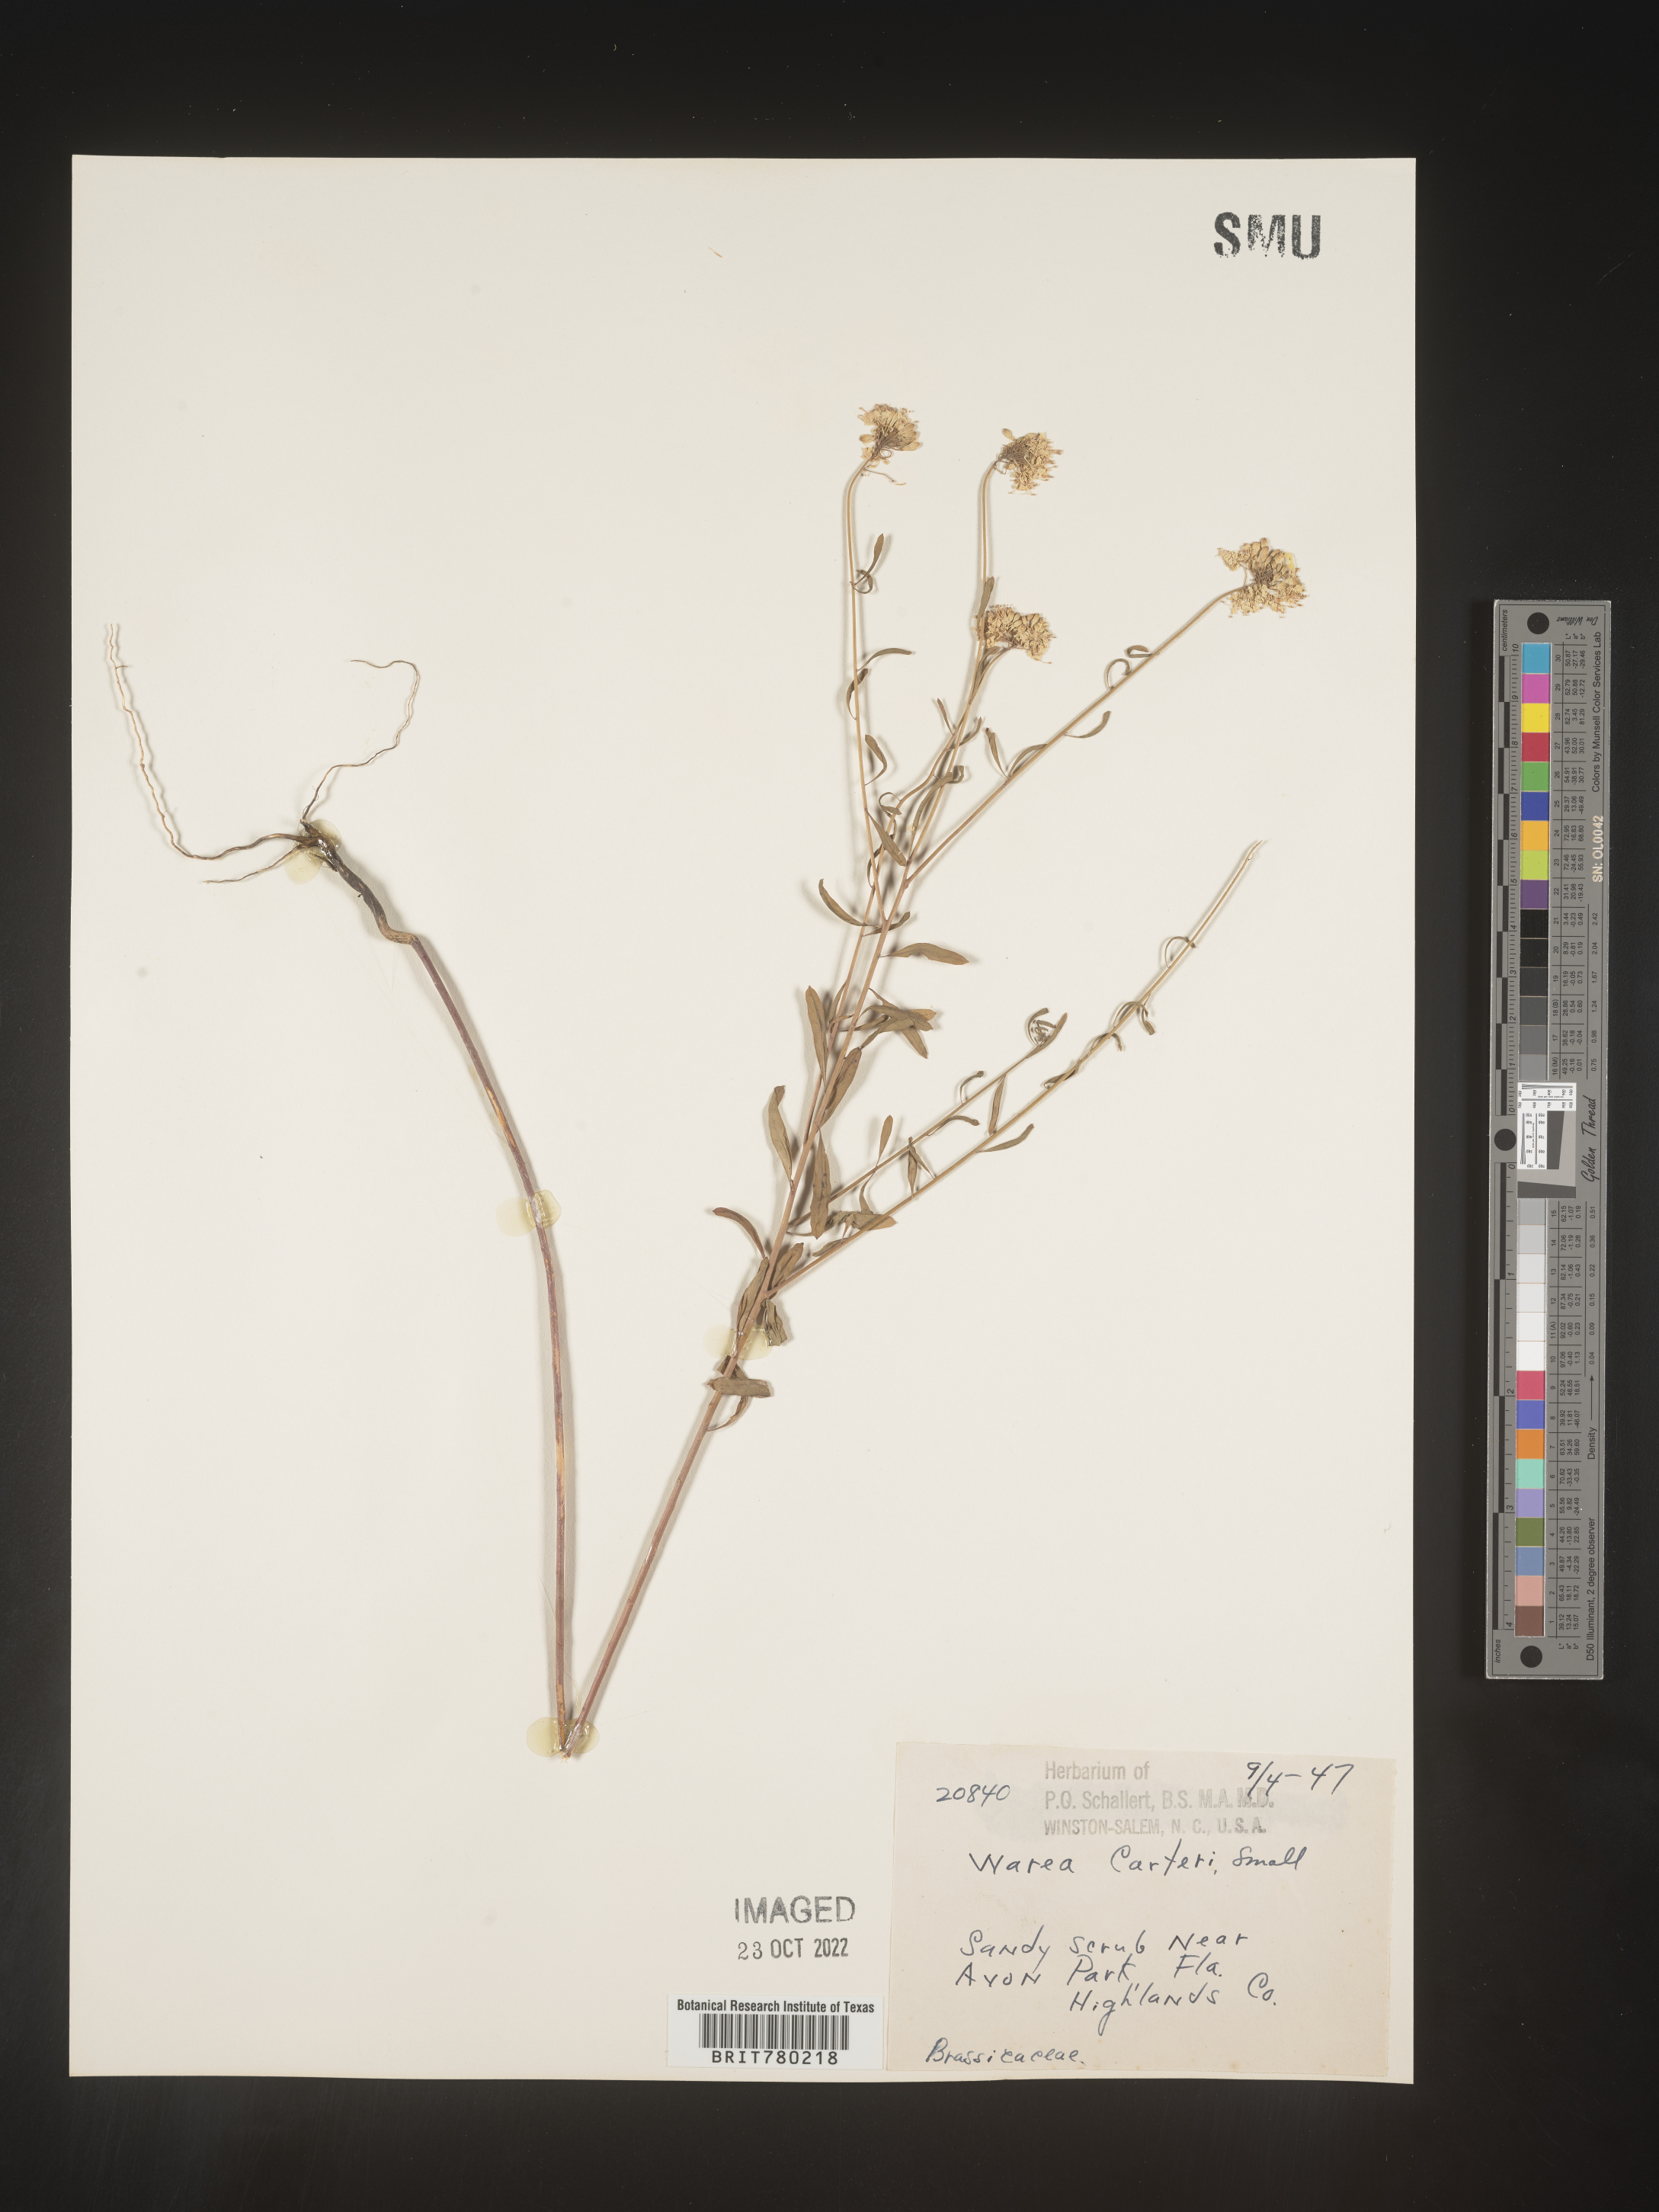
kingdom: Plantae
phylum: Tracheophyta
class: Magnoliopsida
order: Brassicales
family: Brassicaceae
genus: Warea
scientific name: Warea
